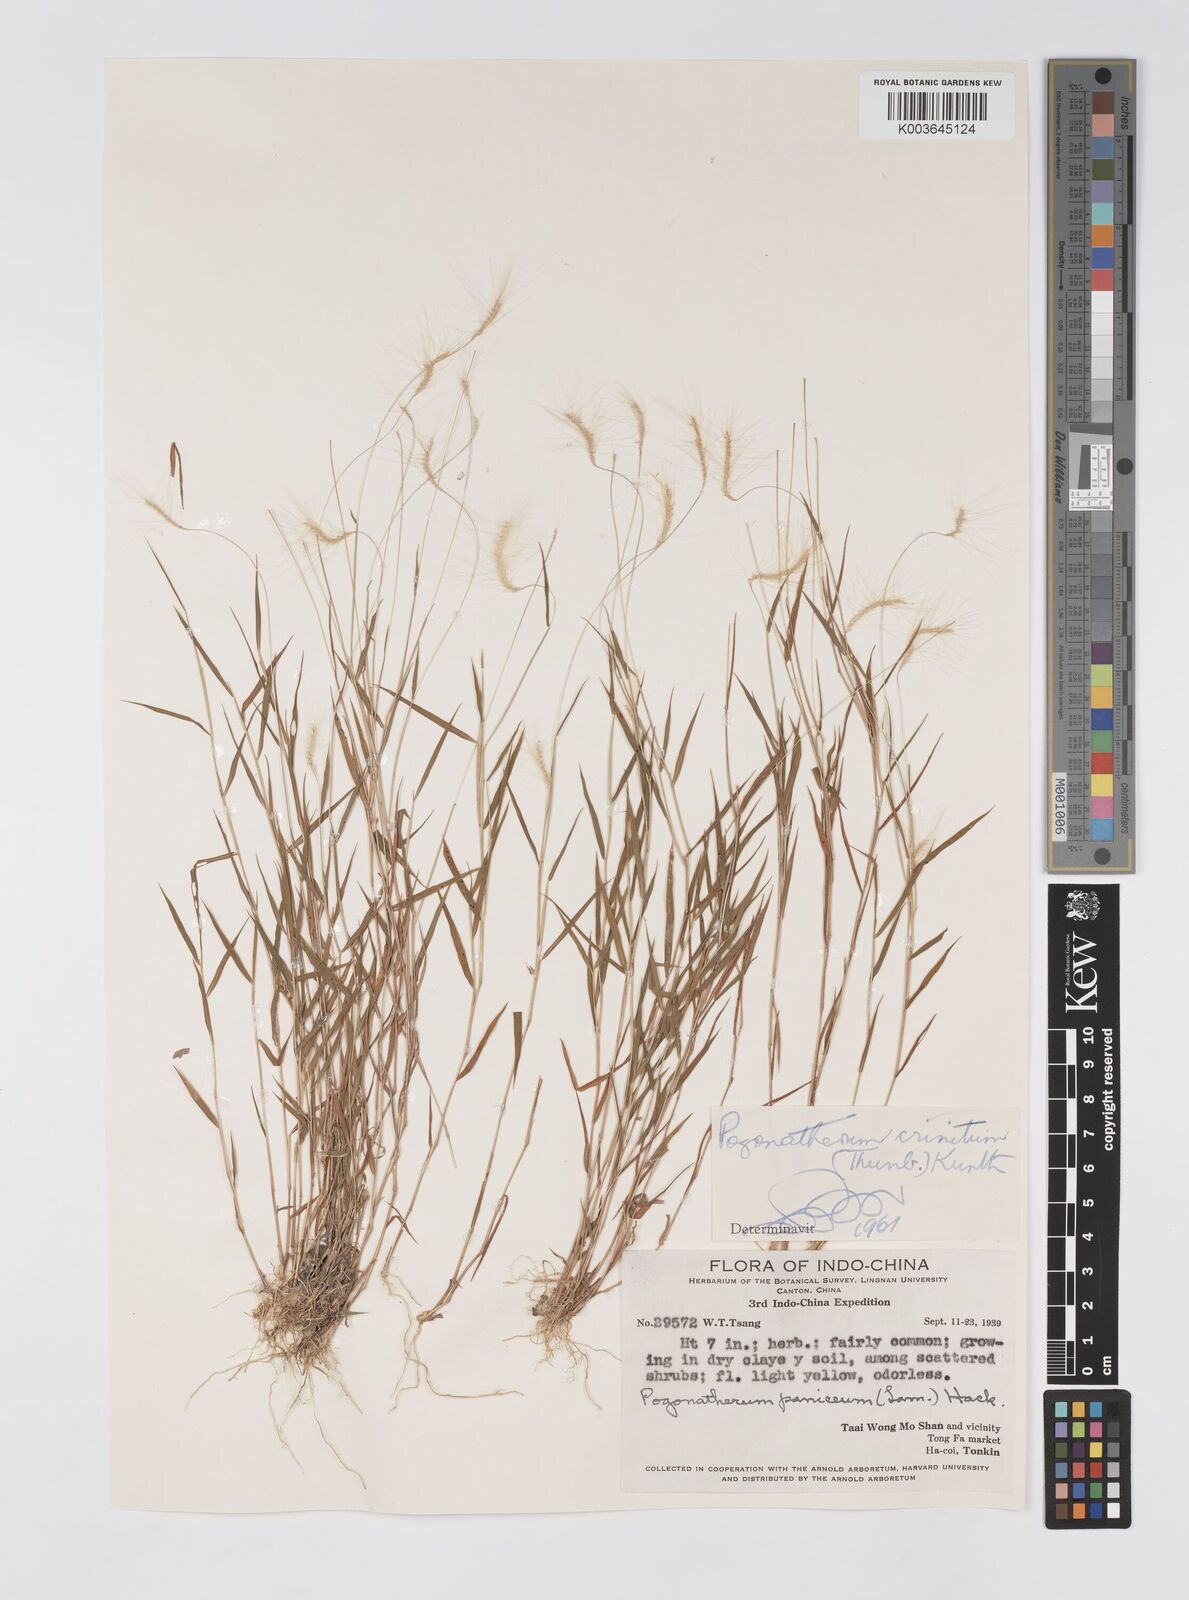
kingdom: Plantae
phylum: Tracheophyta
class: Liliopsida
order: Poales
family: Poaceae
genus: Pogonatherum
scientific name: Pogonatherum crinitum
